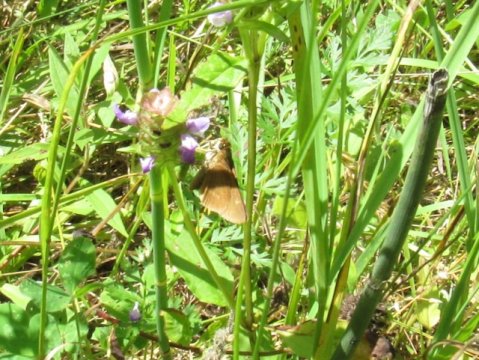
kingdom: Animalia
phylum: Arthropoda
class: Insecta
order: Lepidoptera
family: Hesperiidae
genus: Euphyes
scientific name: Euphyes
